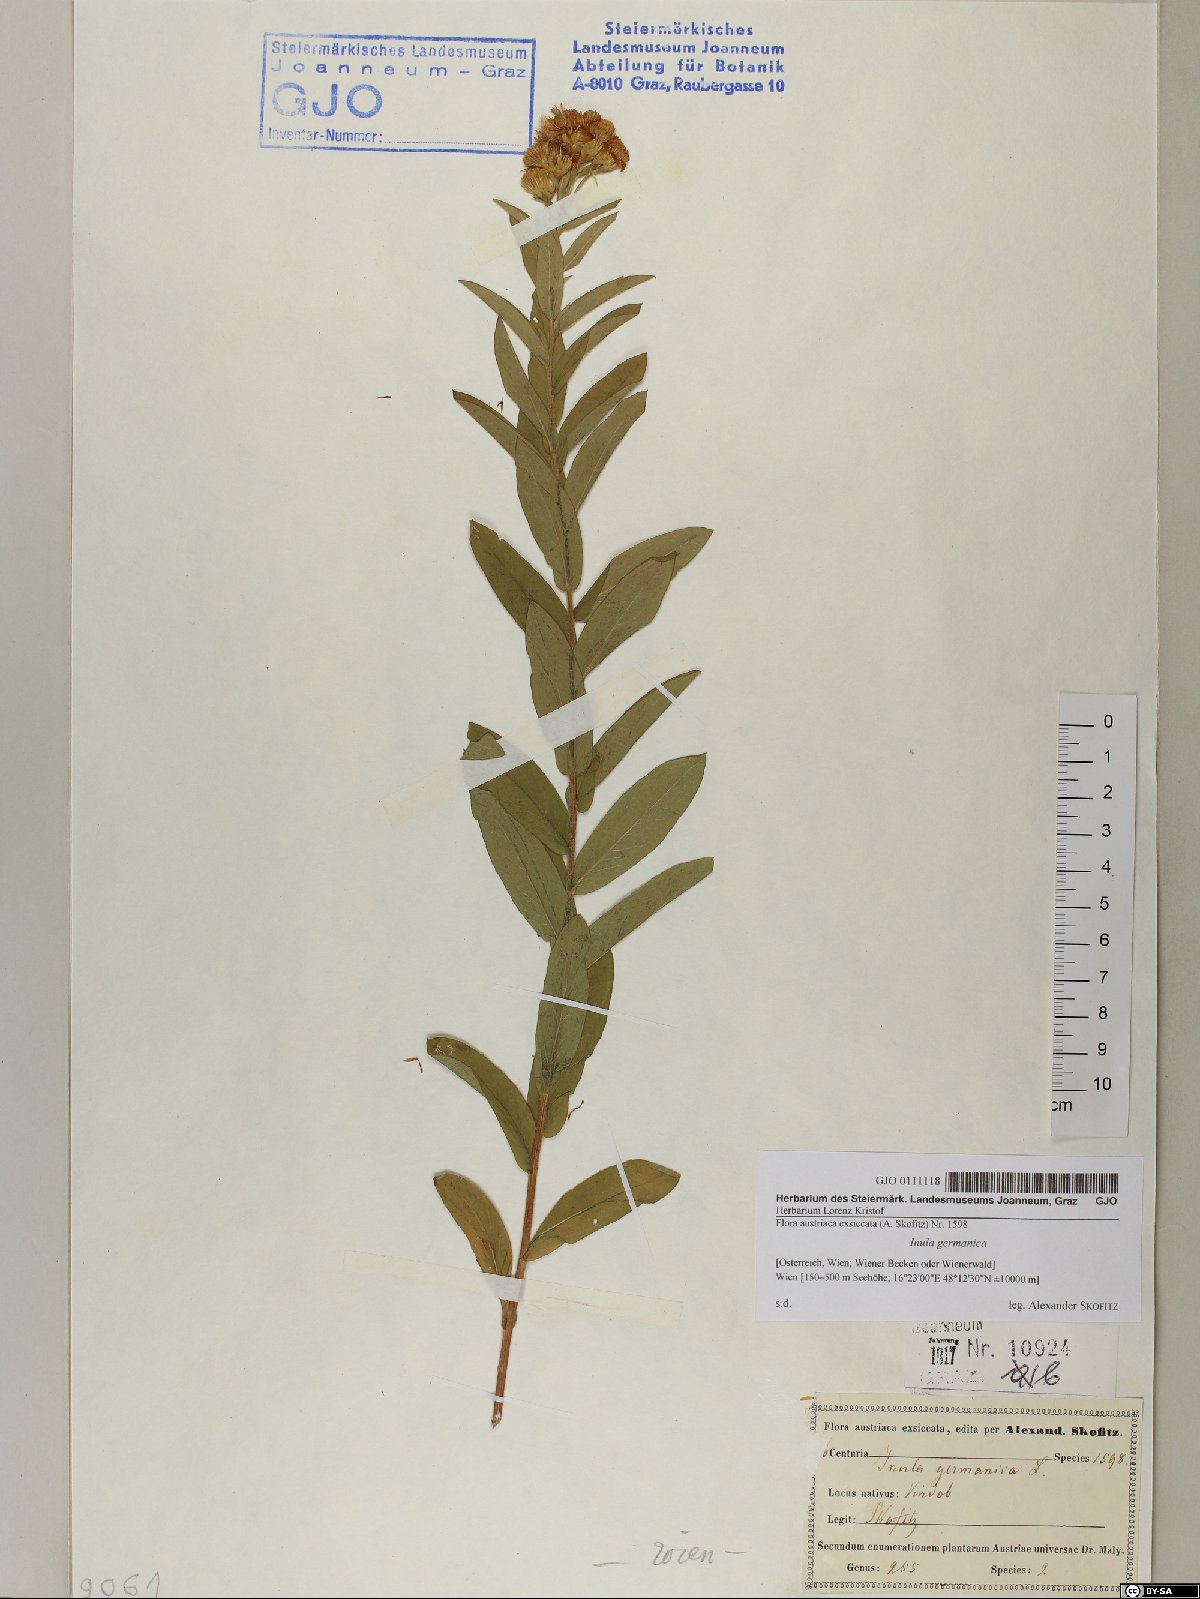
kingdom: Plantae
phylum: Tracheophyta
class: Magnoliopsida
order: Asterales
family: Asteraceae
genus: Pentanema
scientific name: Pentanema germanicum
